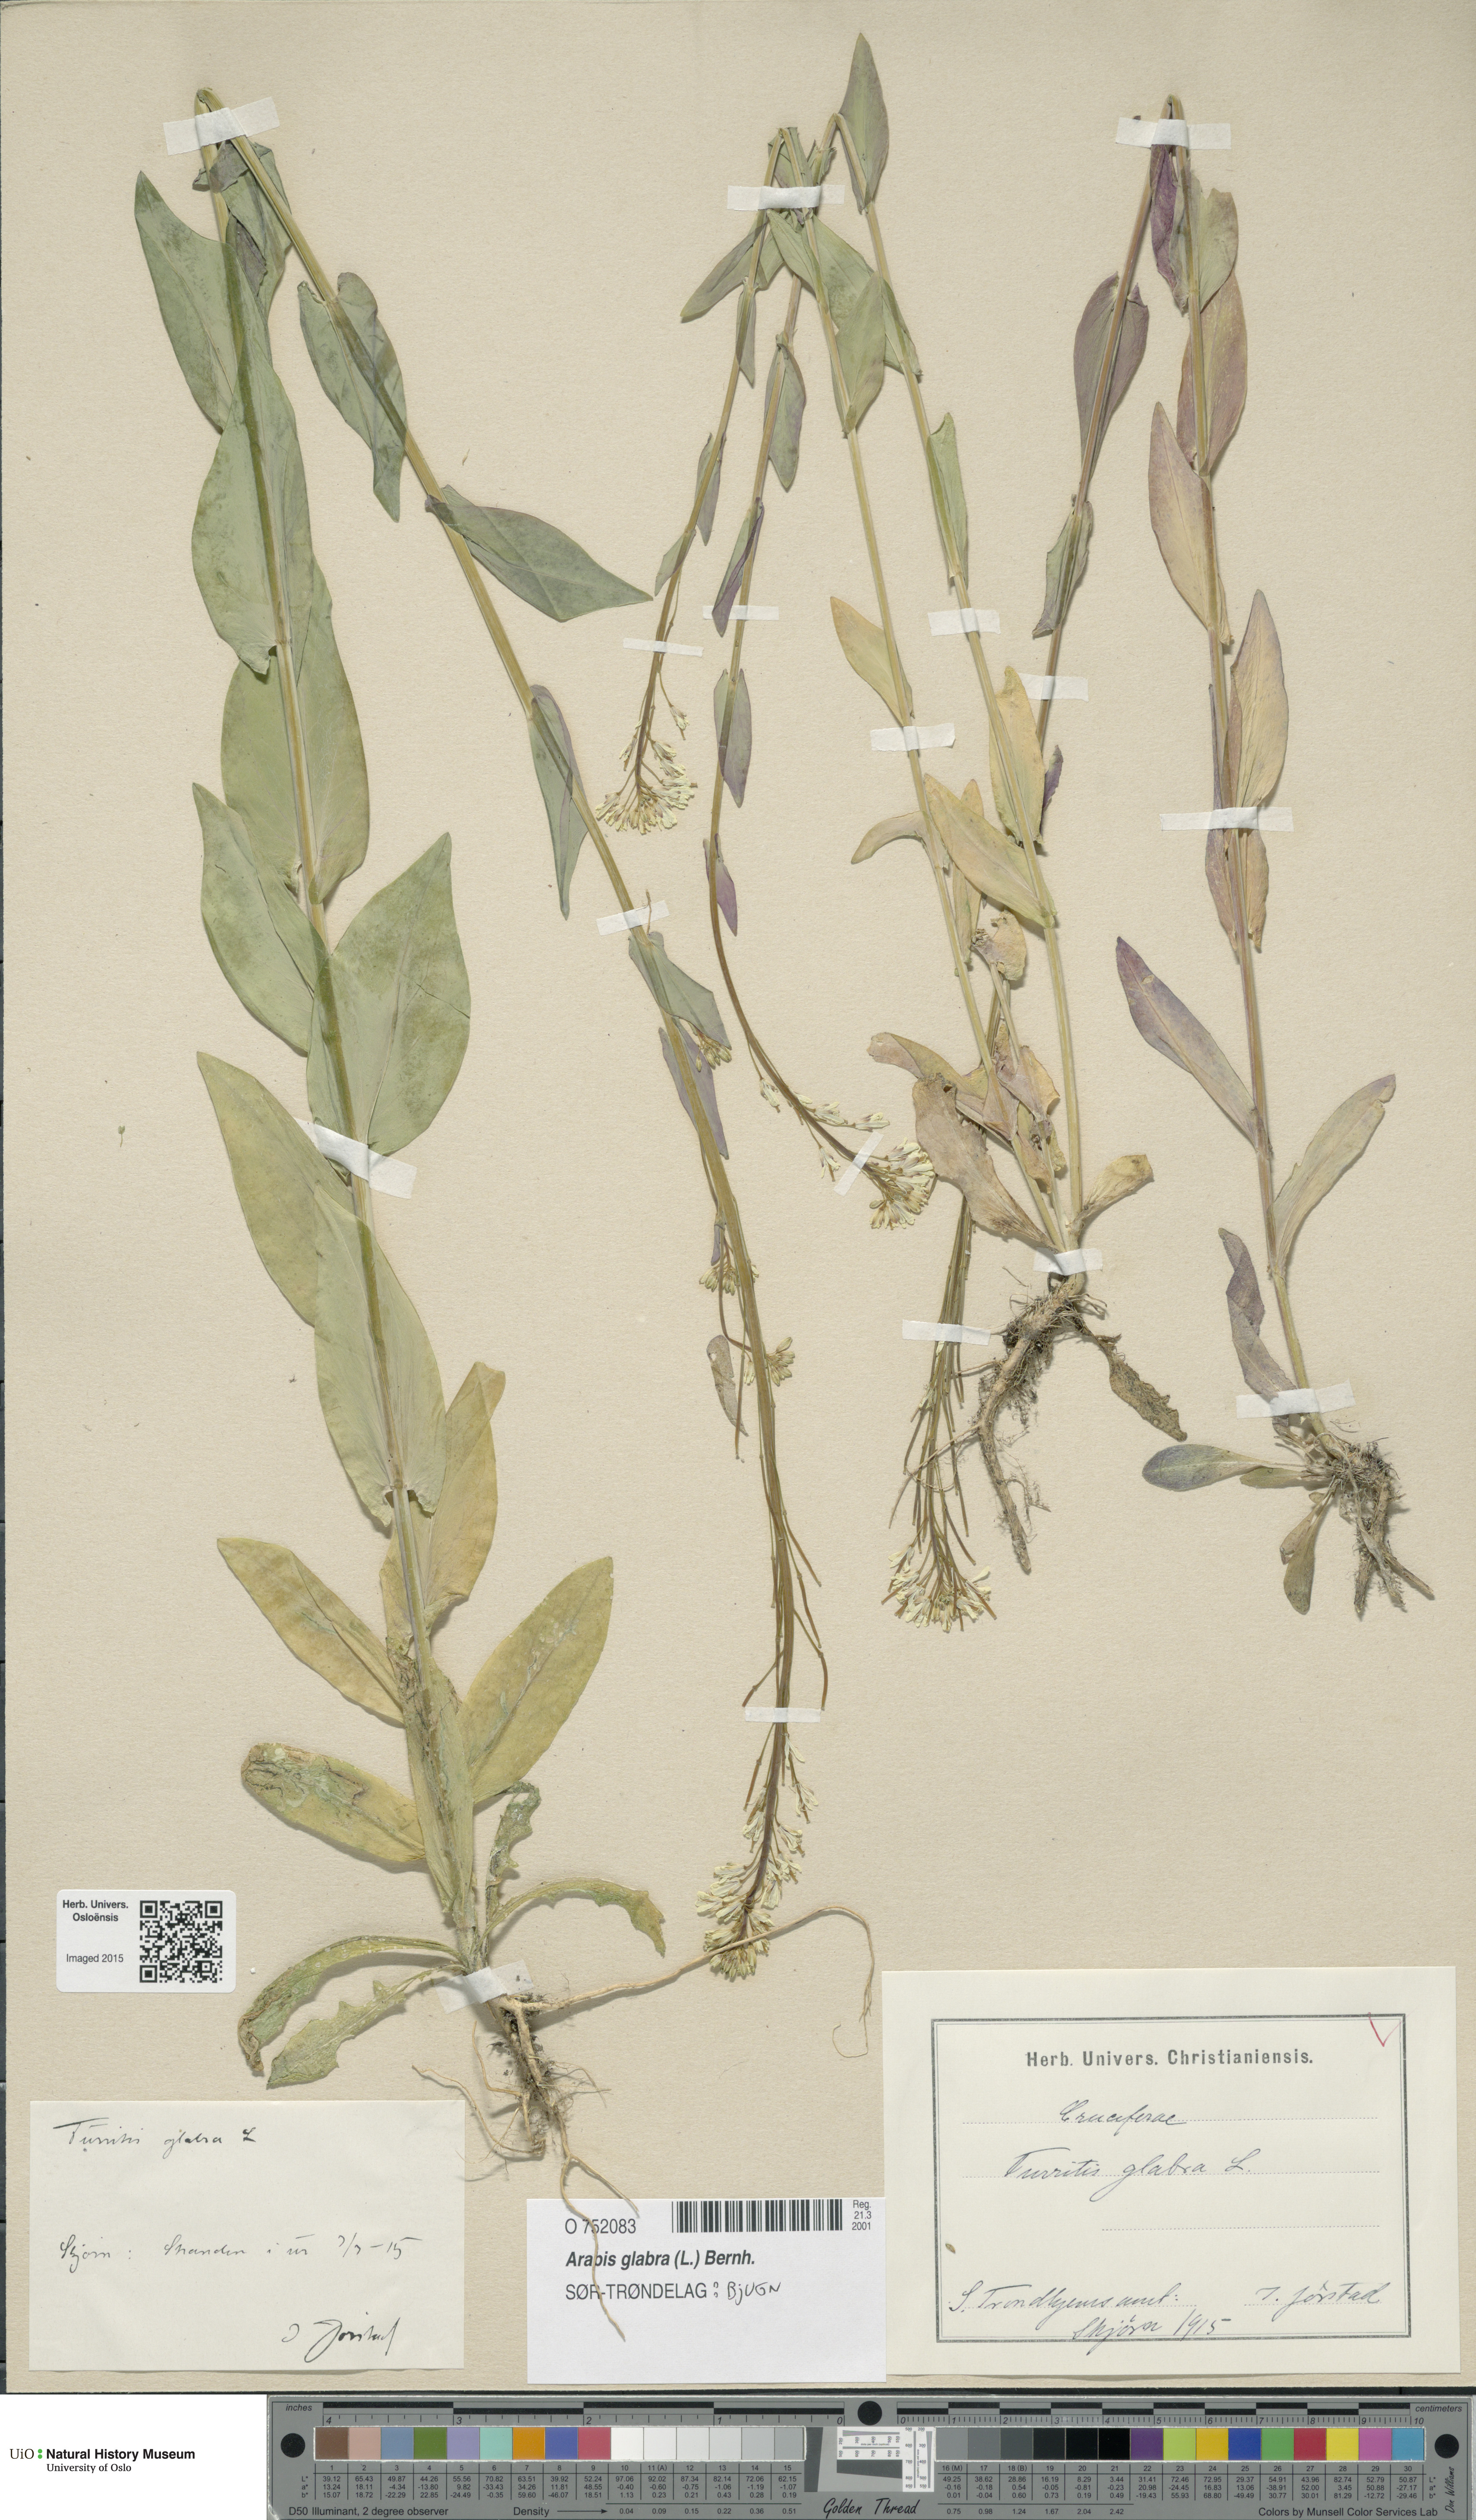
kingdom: Plantae
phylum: Tracheophyta
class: Magnoliopsida
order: Brassicales
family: Brassicaceae
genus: Turritis
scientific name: Turritis glabra
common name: Tower rockcress
